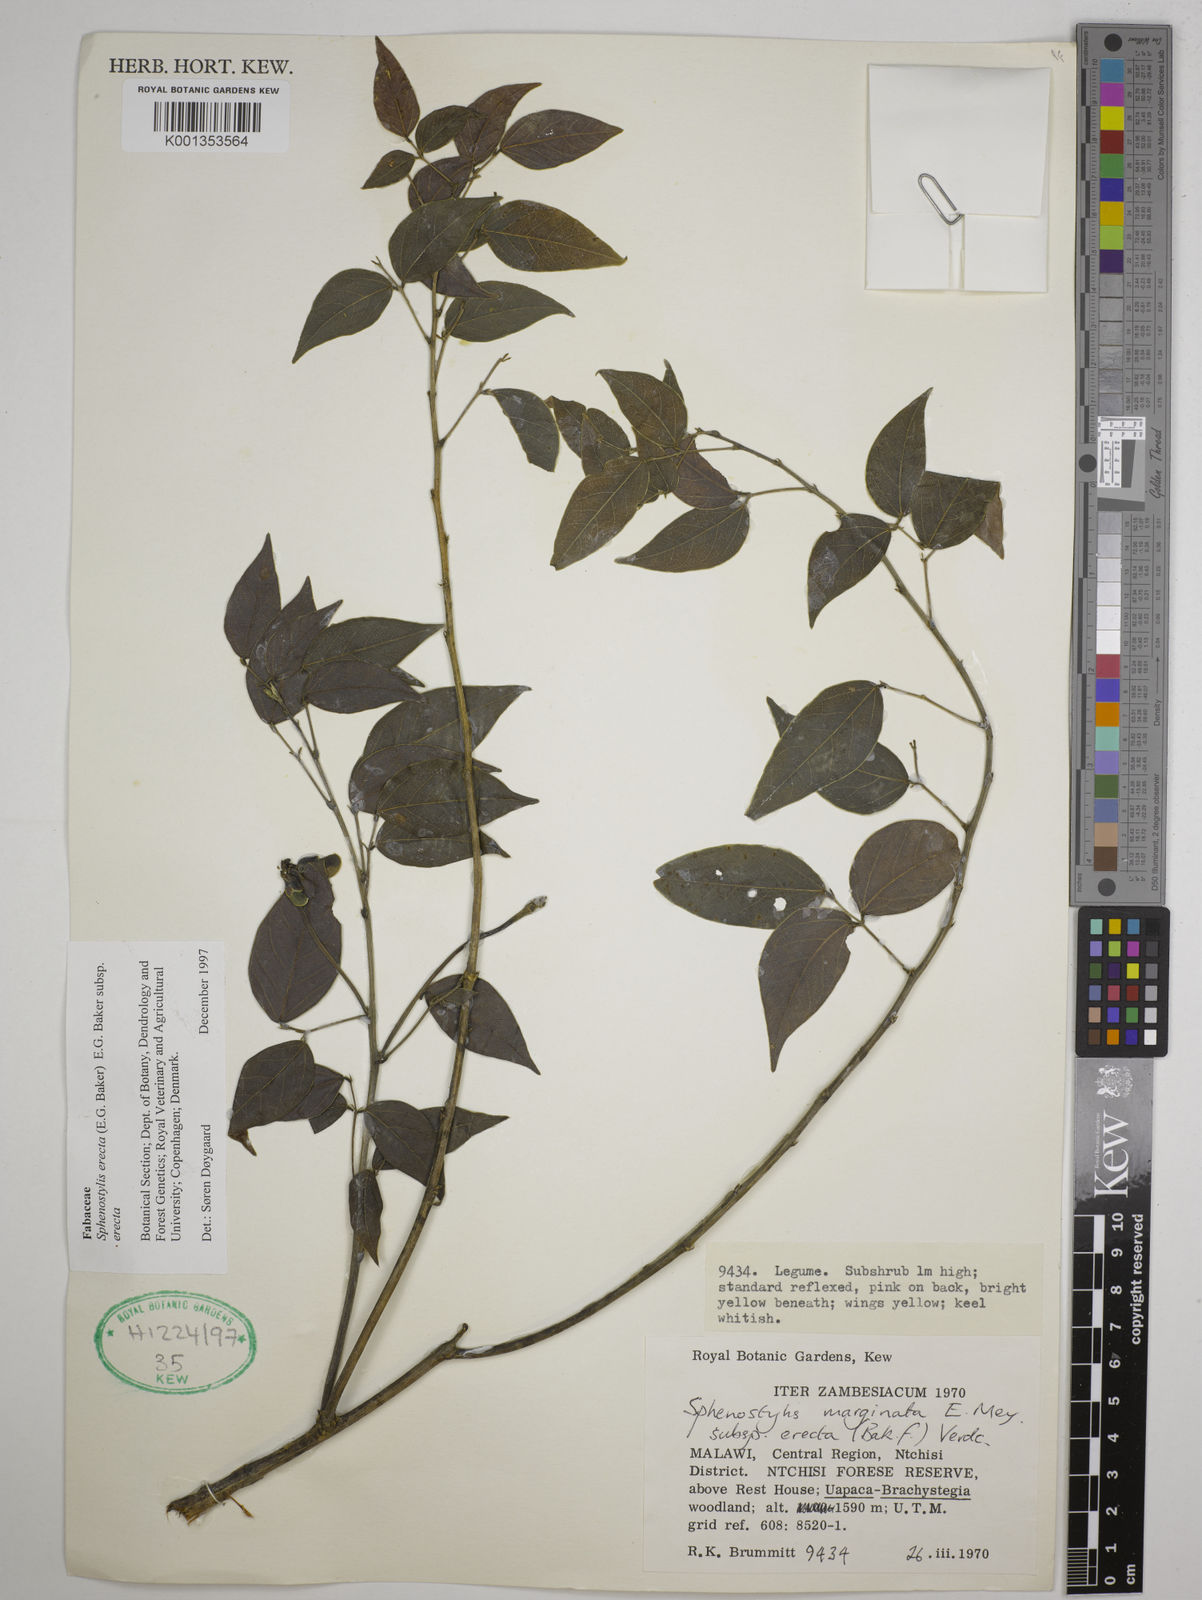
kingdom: Plantae
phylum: Tracheophyta
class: Magnoliopsida
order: Fabales
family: Fabaceae
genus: Sphenostylis
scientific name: Sphenostylis erecta
